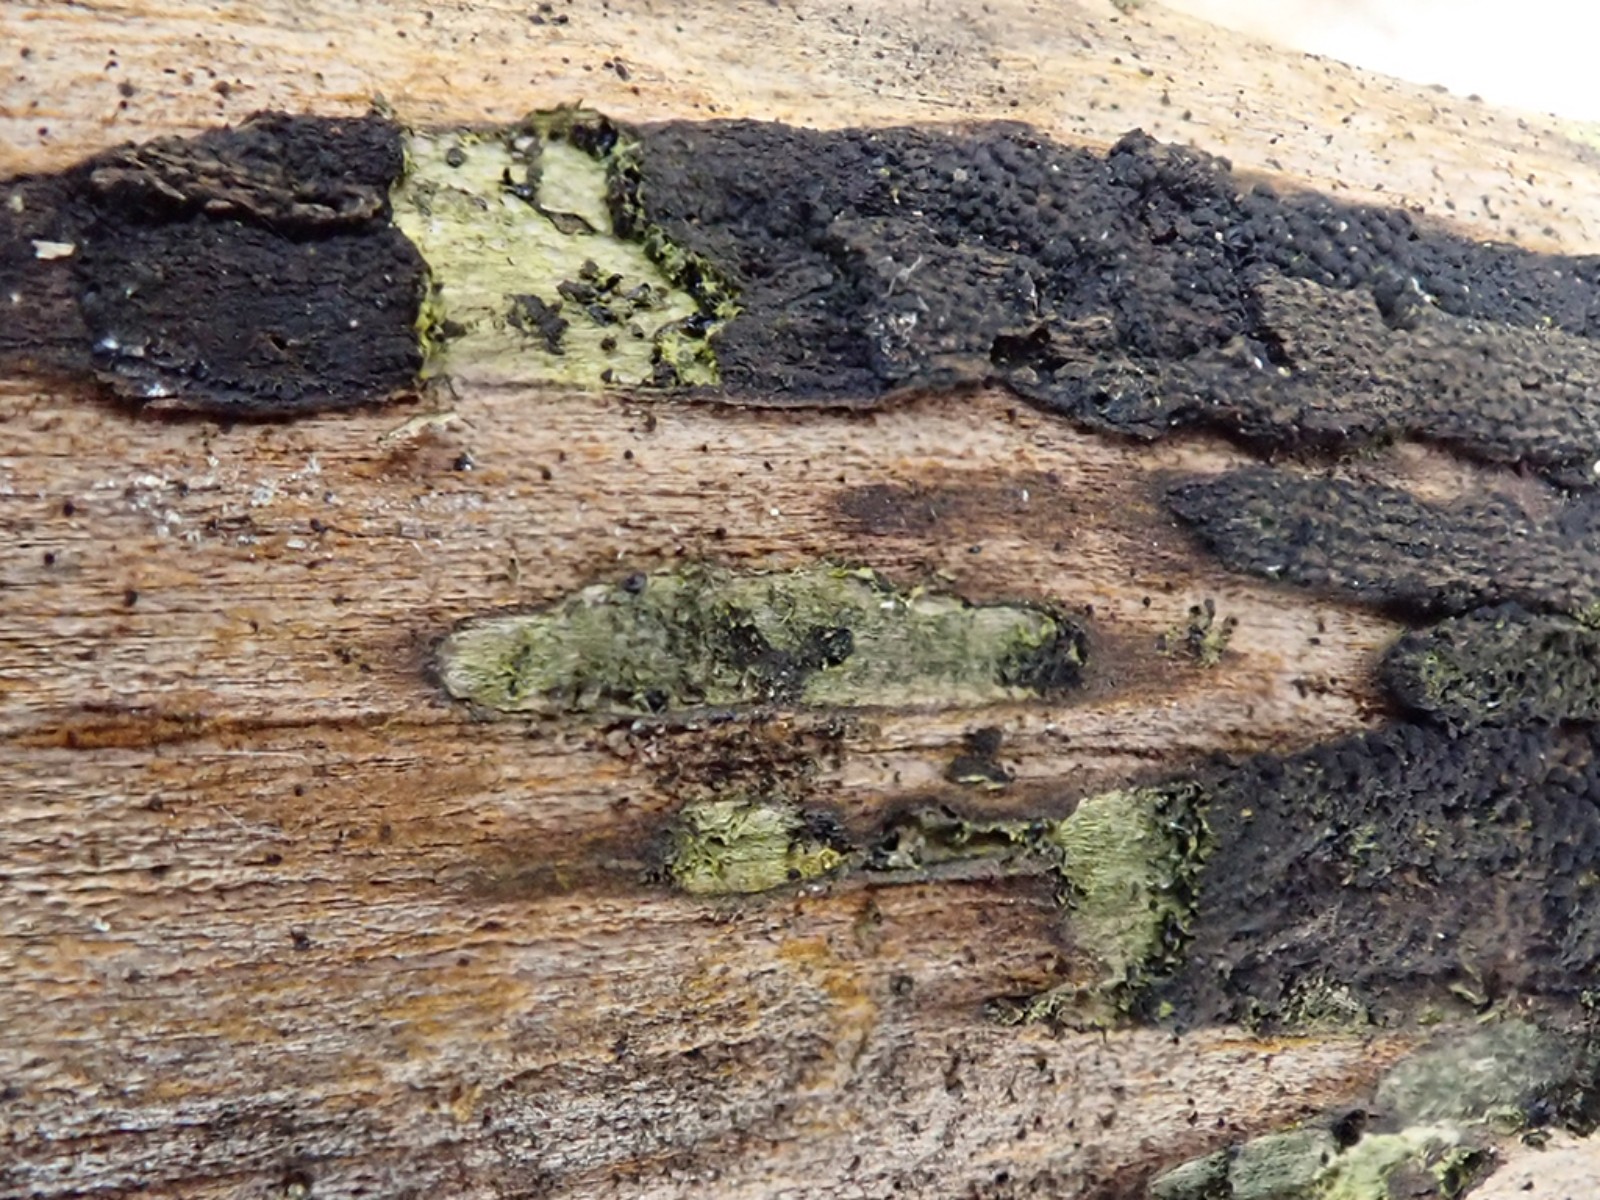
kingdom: Fungi
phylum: Ascomycota
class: Sordariomycetes
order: Xylariales
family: Diatrypaceae
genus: Eutypa
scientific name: Eutypa flavovirens
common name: grønkødet kulskorpe
